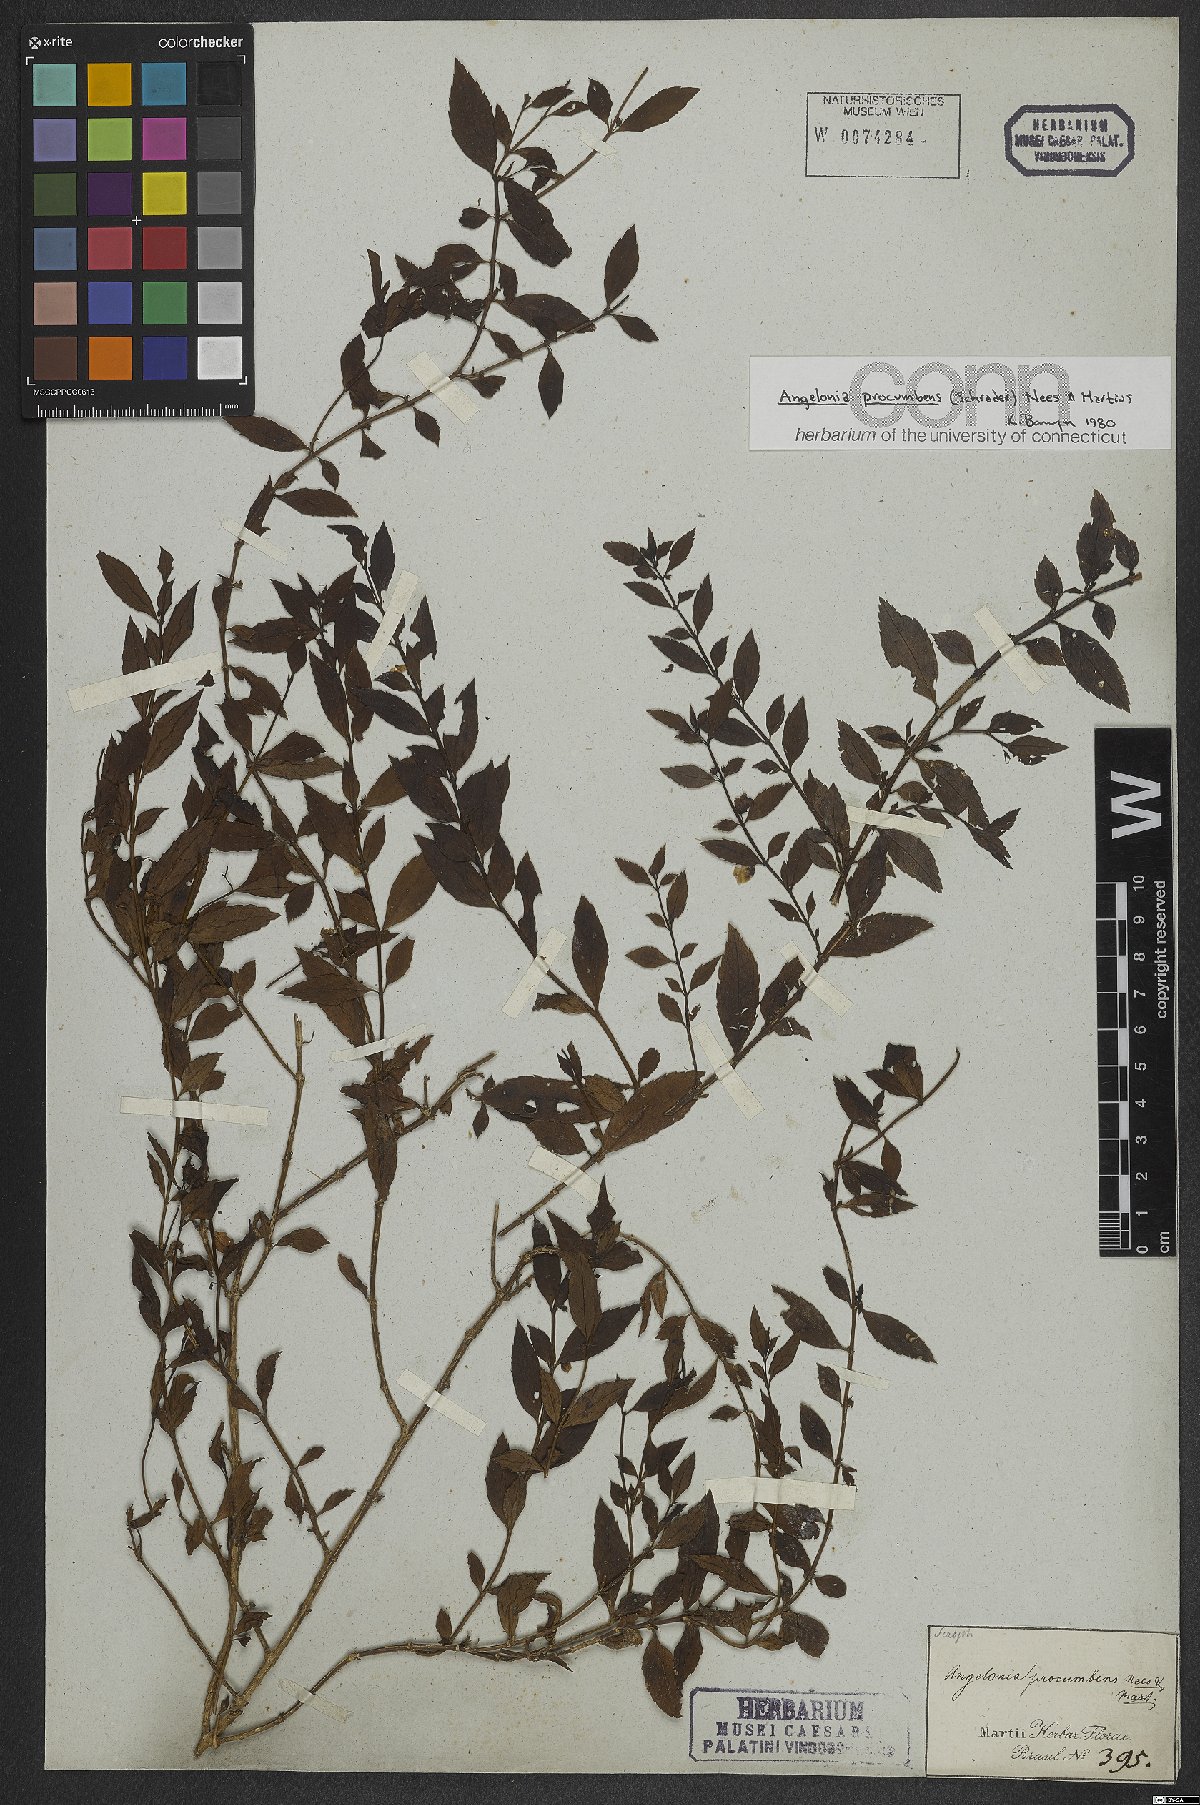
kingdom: Plantae
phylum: Tracheophyta
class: Magnoliopsida
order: Lamiales
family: Plantaginaceae
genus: Angelonia
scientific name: Angelonia procumbens
